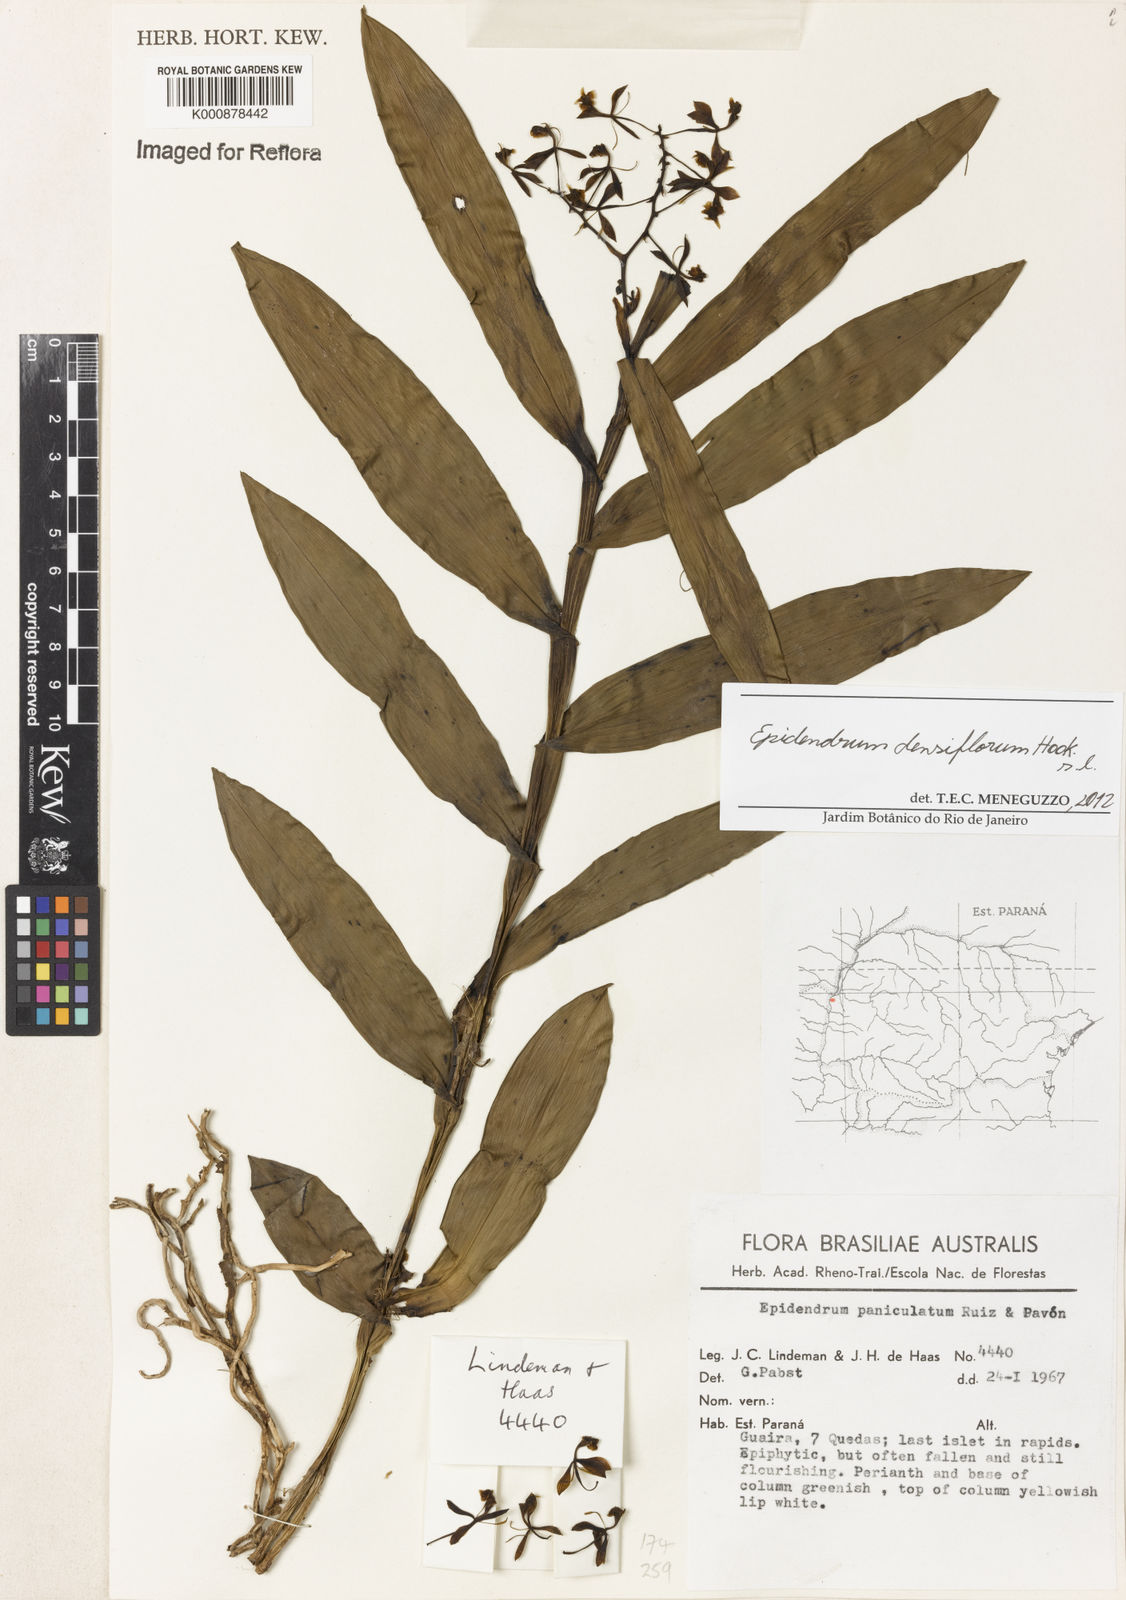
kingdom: Plantae
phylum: Tracheophyta
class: Liliopsida
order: Asparagales
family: Orchidaceae
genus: Epidendrum
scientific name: Epidendrum densiflorum
